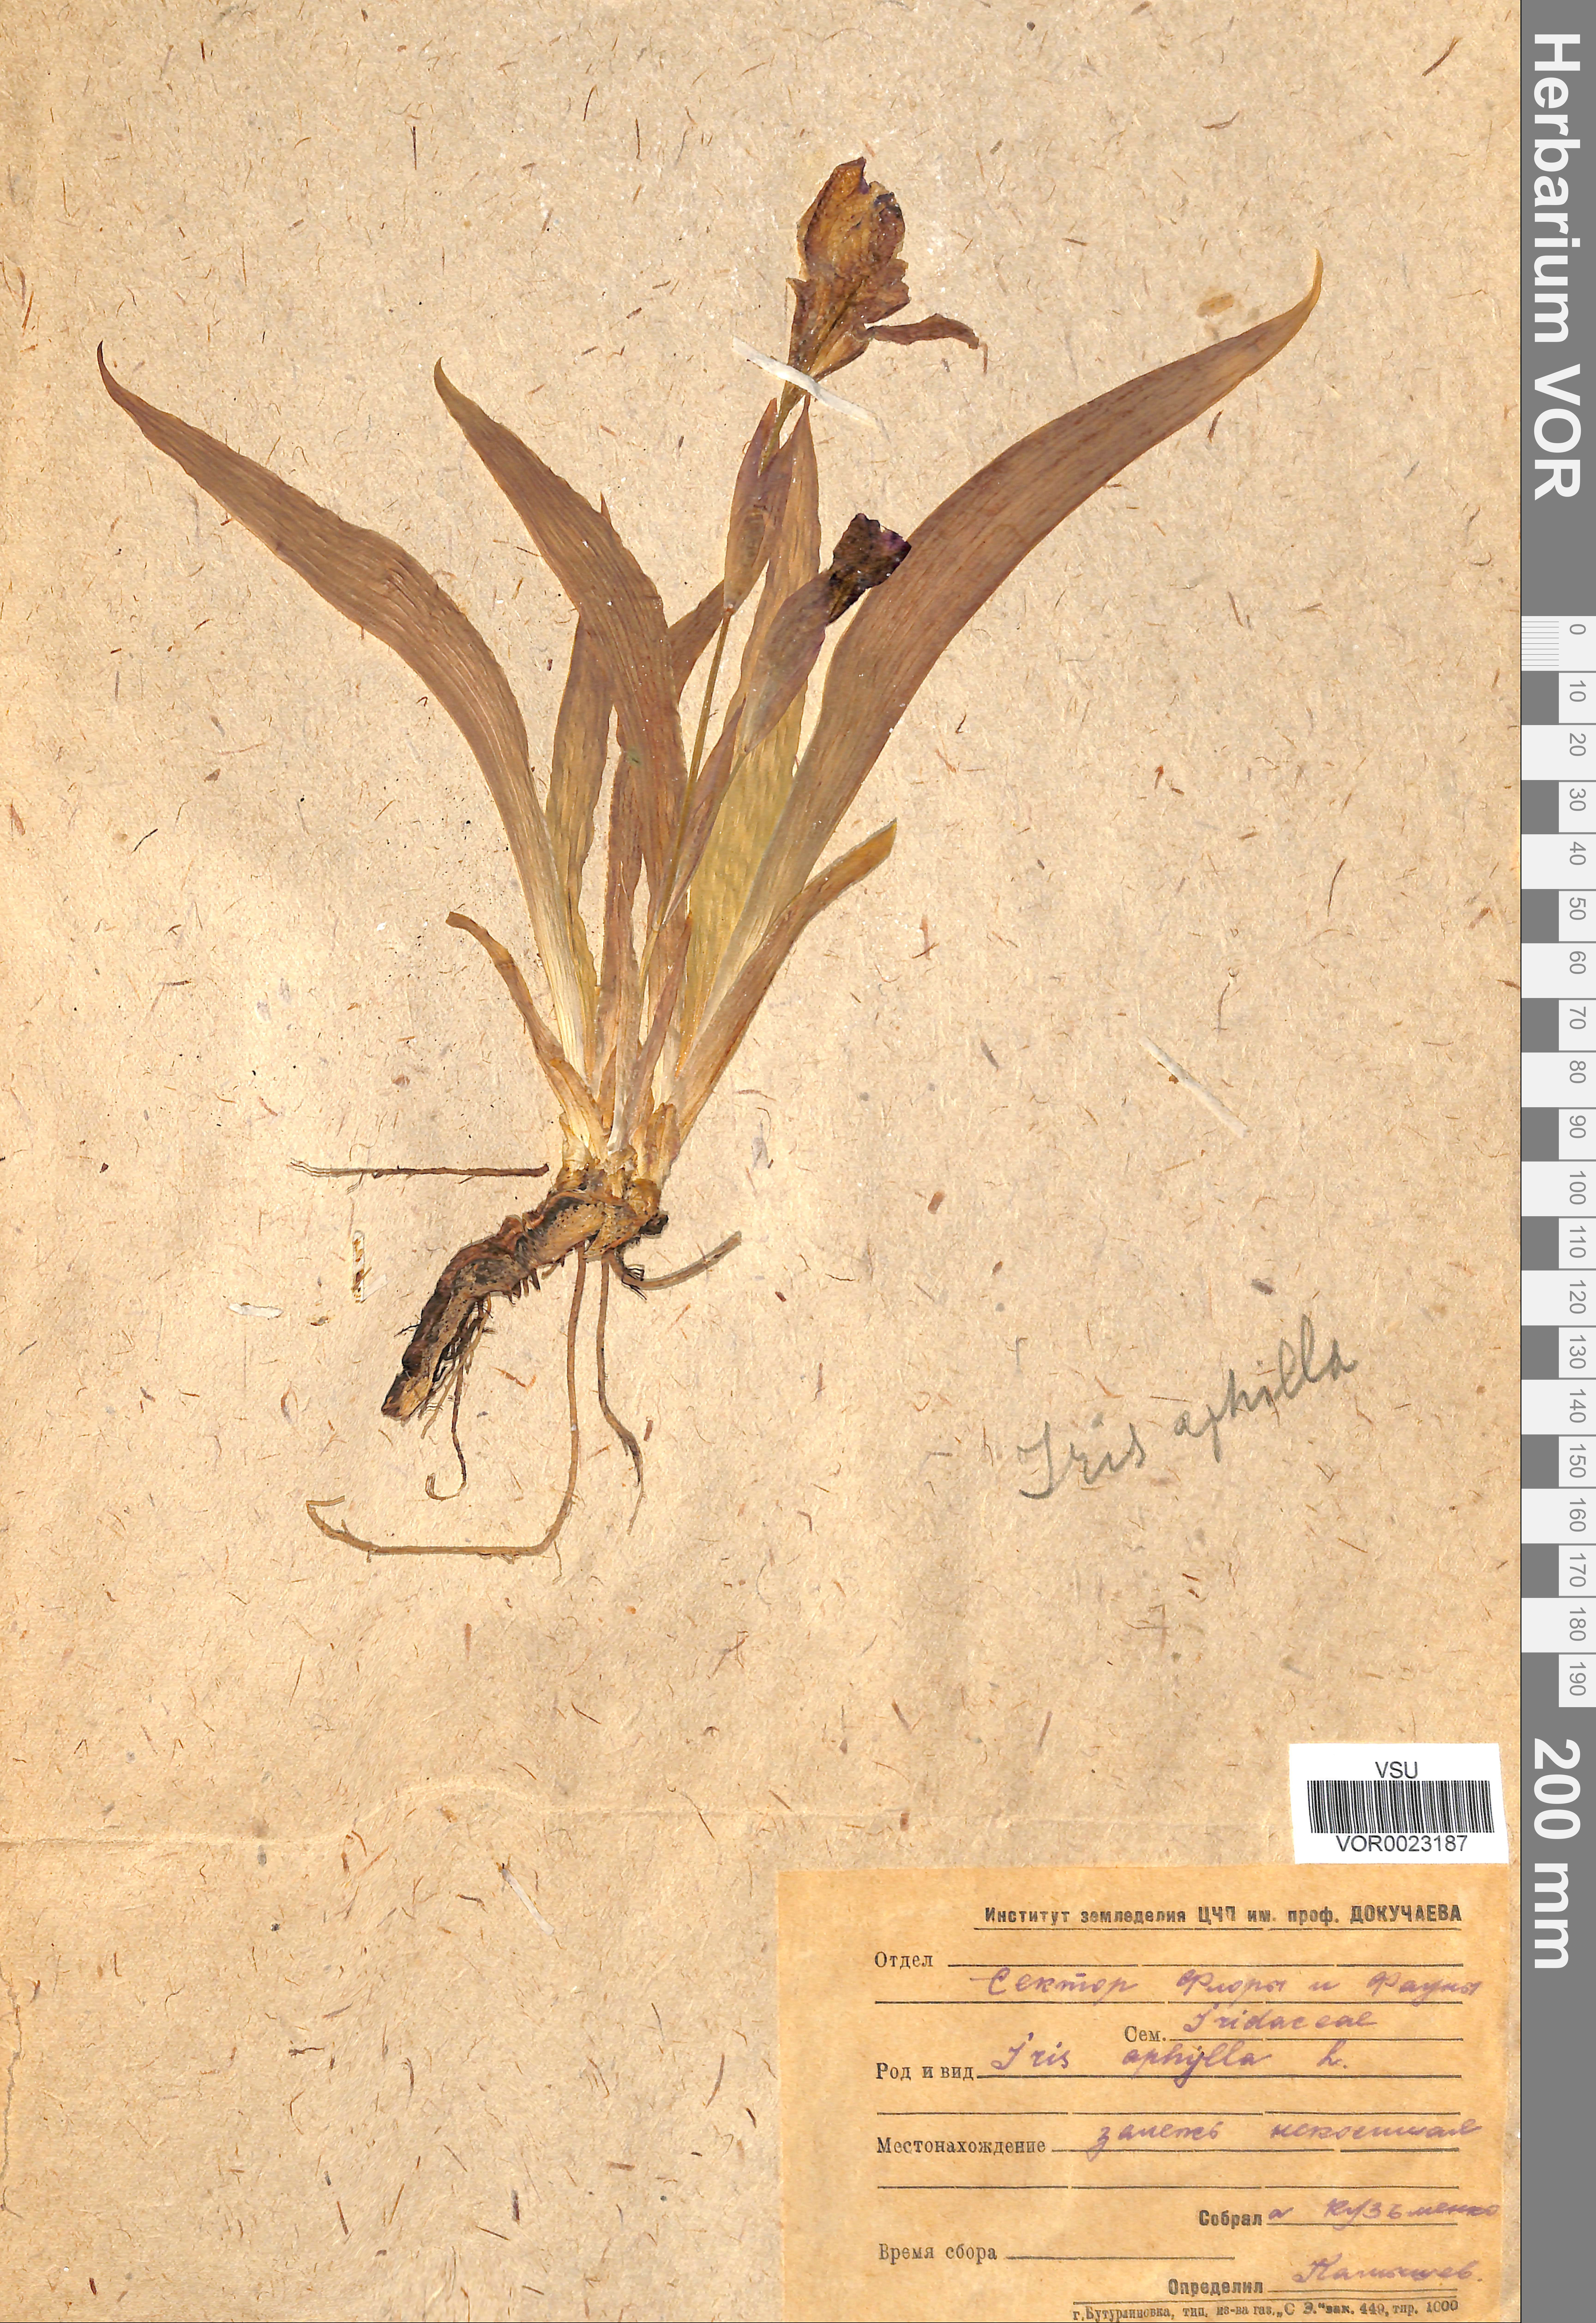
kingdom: Plantae
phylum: Tracheophyta
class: Liliopsida
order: Asparagales
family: Iridaceae
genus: Iris
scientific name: Iris aphylla
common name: Stool iris
